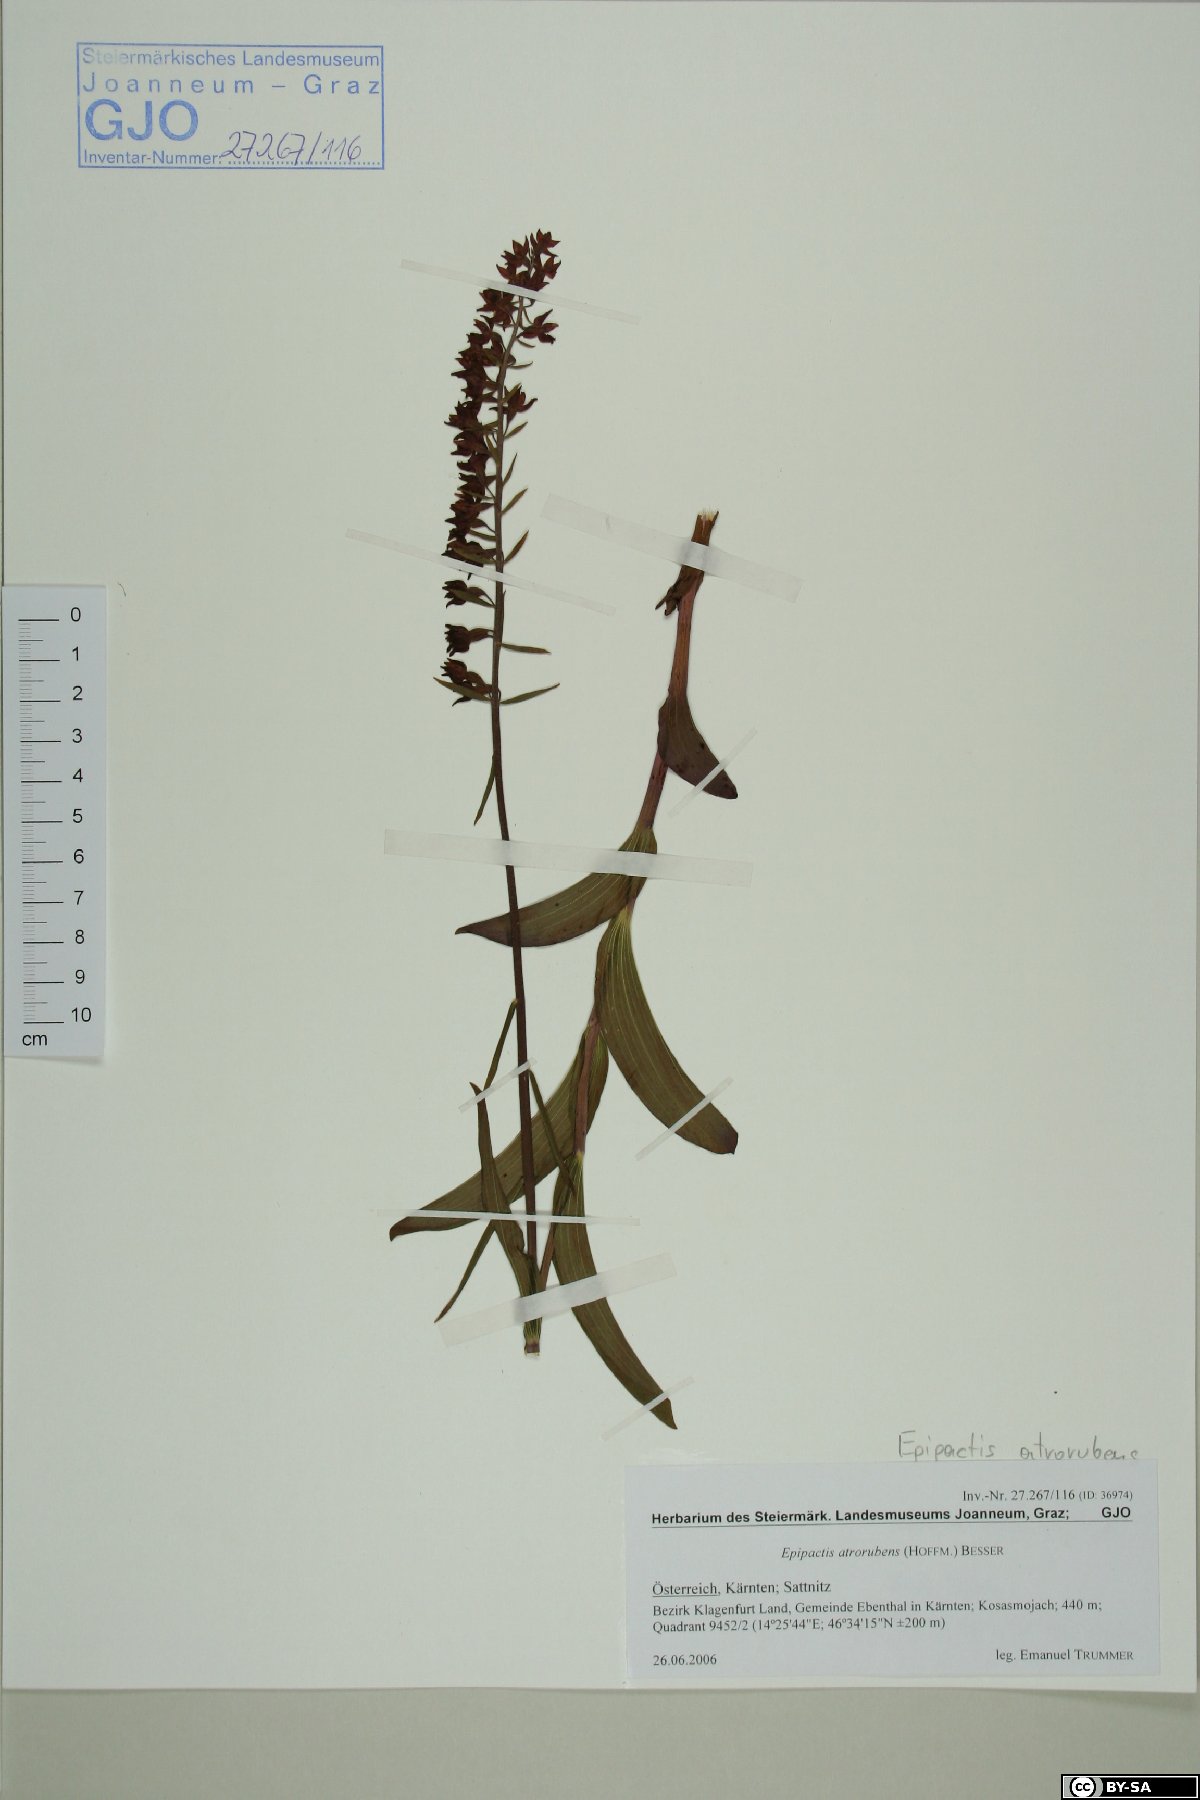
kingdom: Plantae
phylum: Tracheophyta
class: Liliopsida
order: Asparagales
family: Orchidaceae
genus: Epipactis
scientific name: Epipactis atrorubens
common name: Dark-red helleborine
